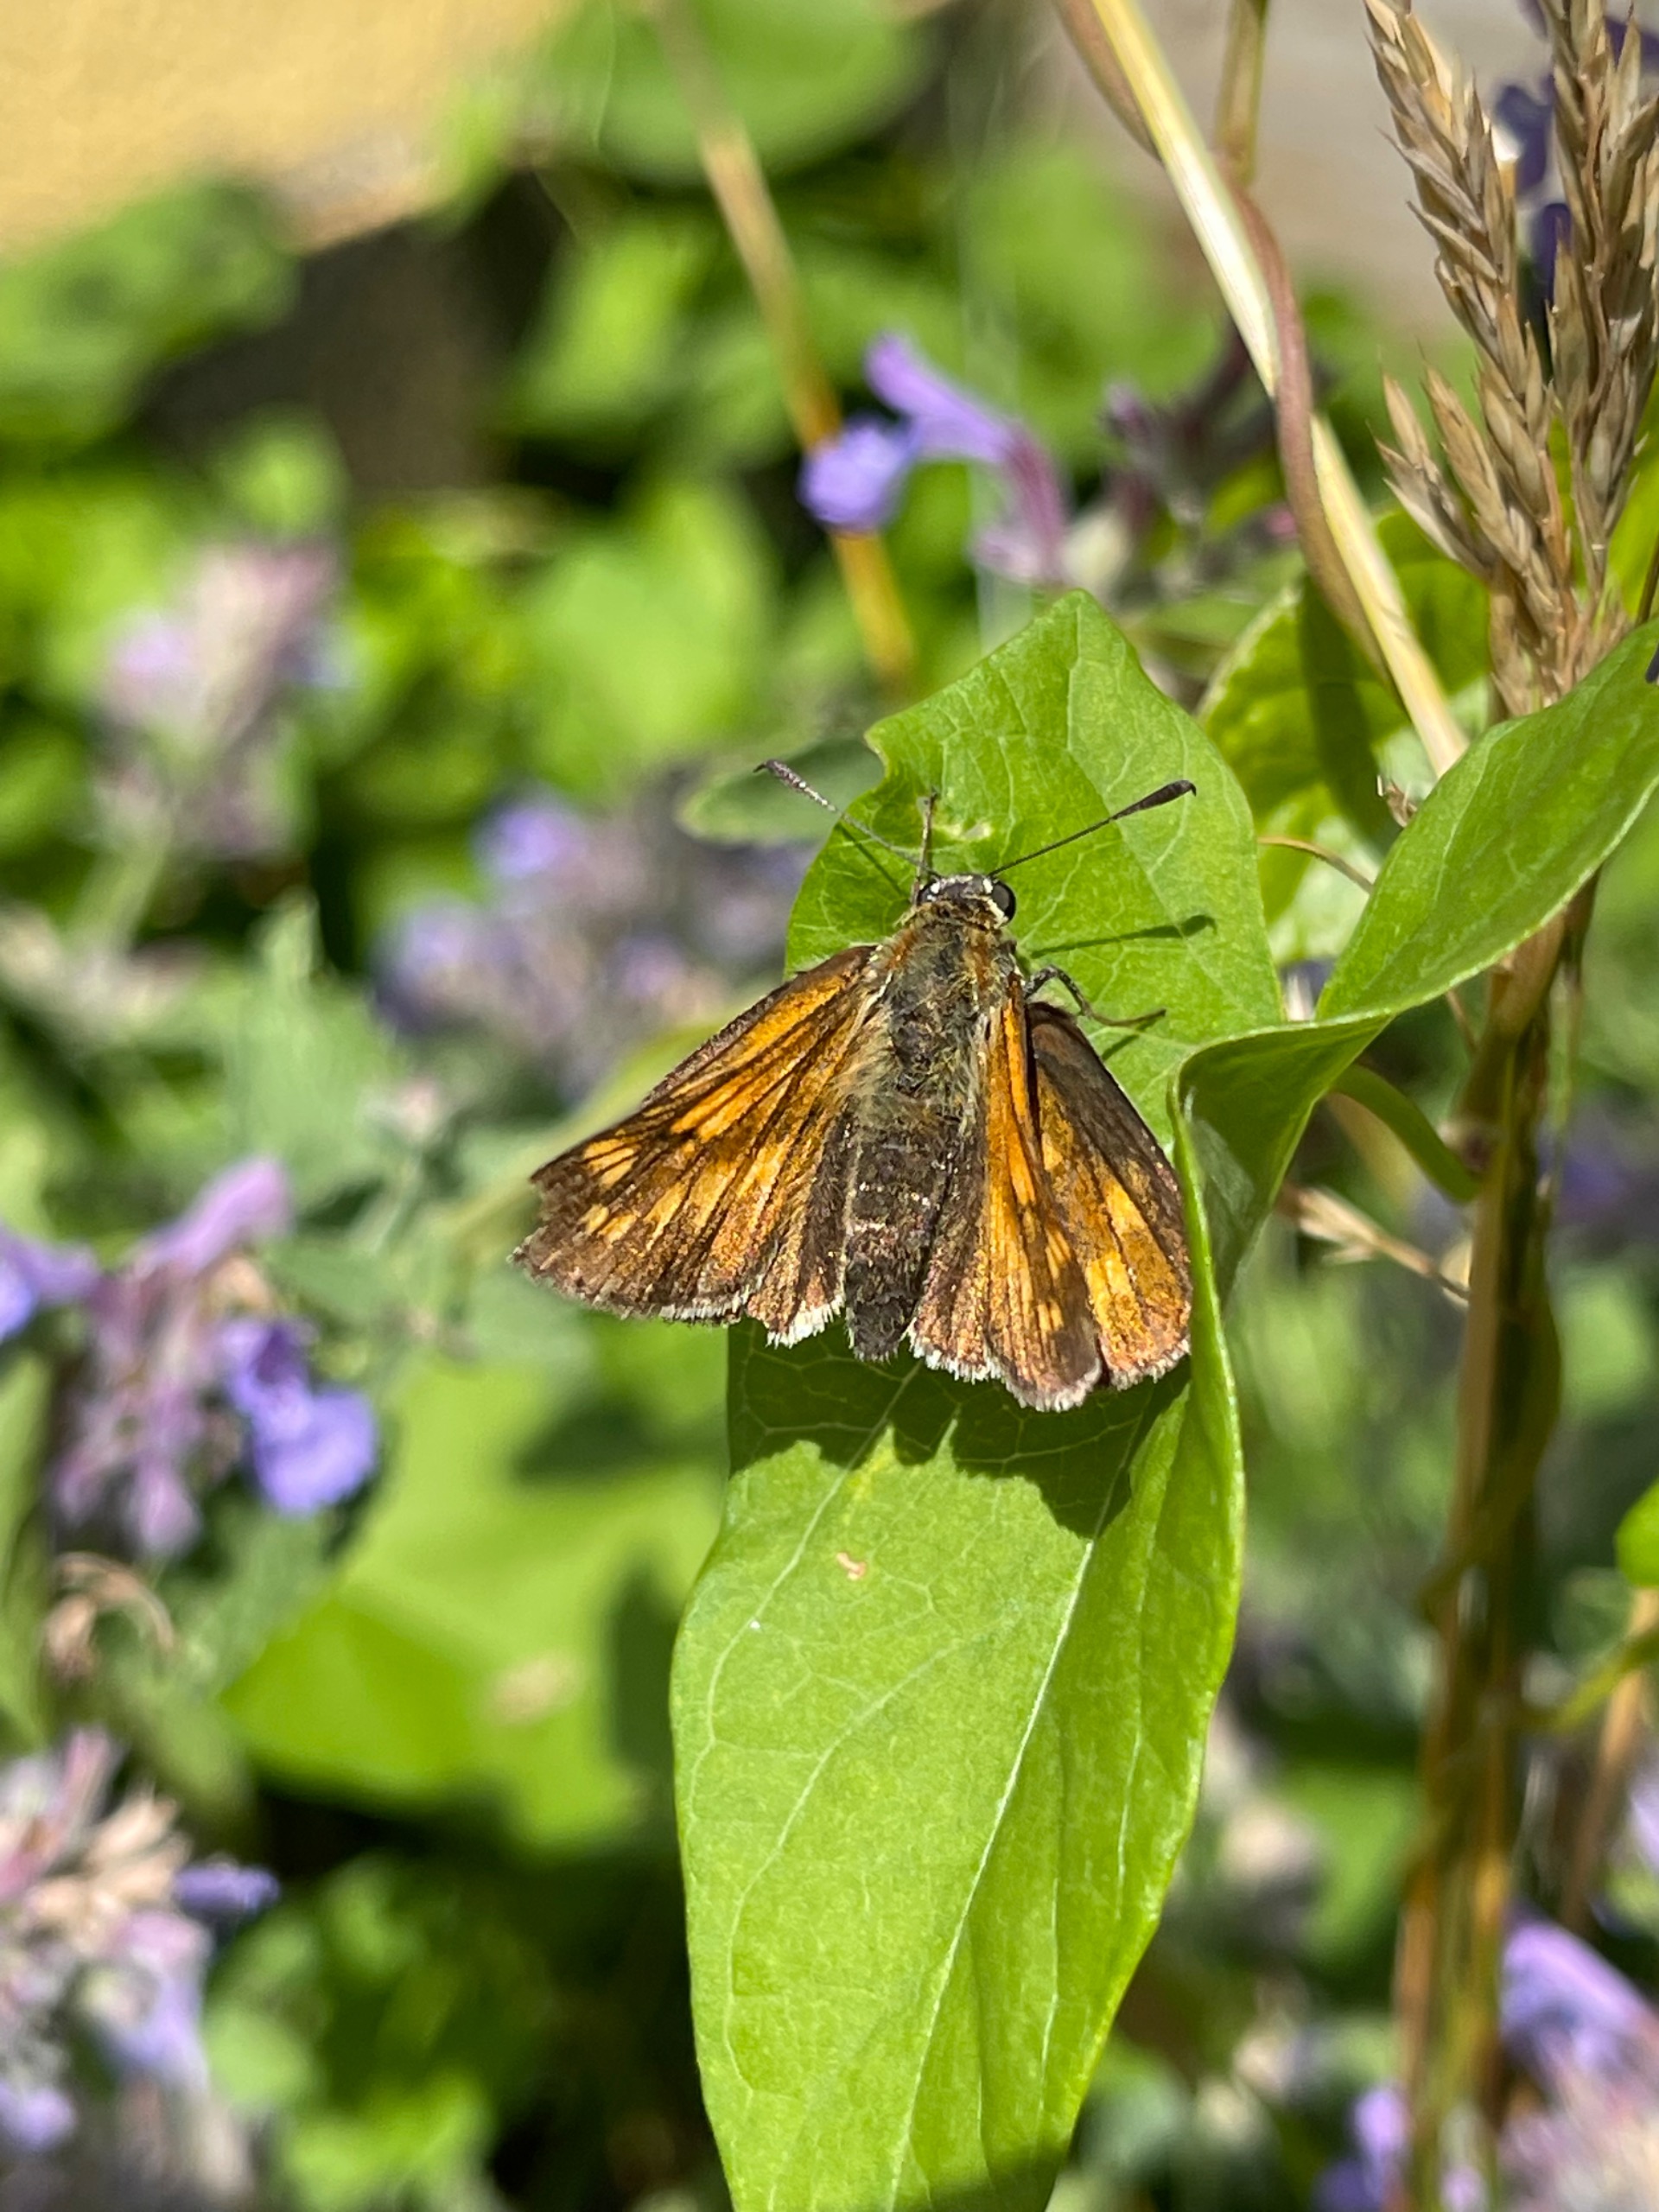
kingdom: Animalia
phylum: Arthropoda
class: Insecta
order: Lepidoptera
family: Hesperiidae
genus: Ochlodes
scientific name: Ochlodes venata
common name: Stor bredpande
